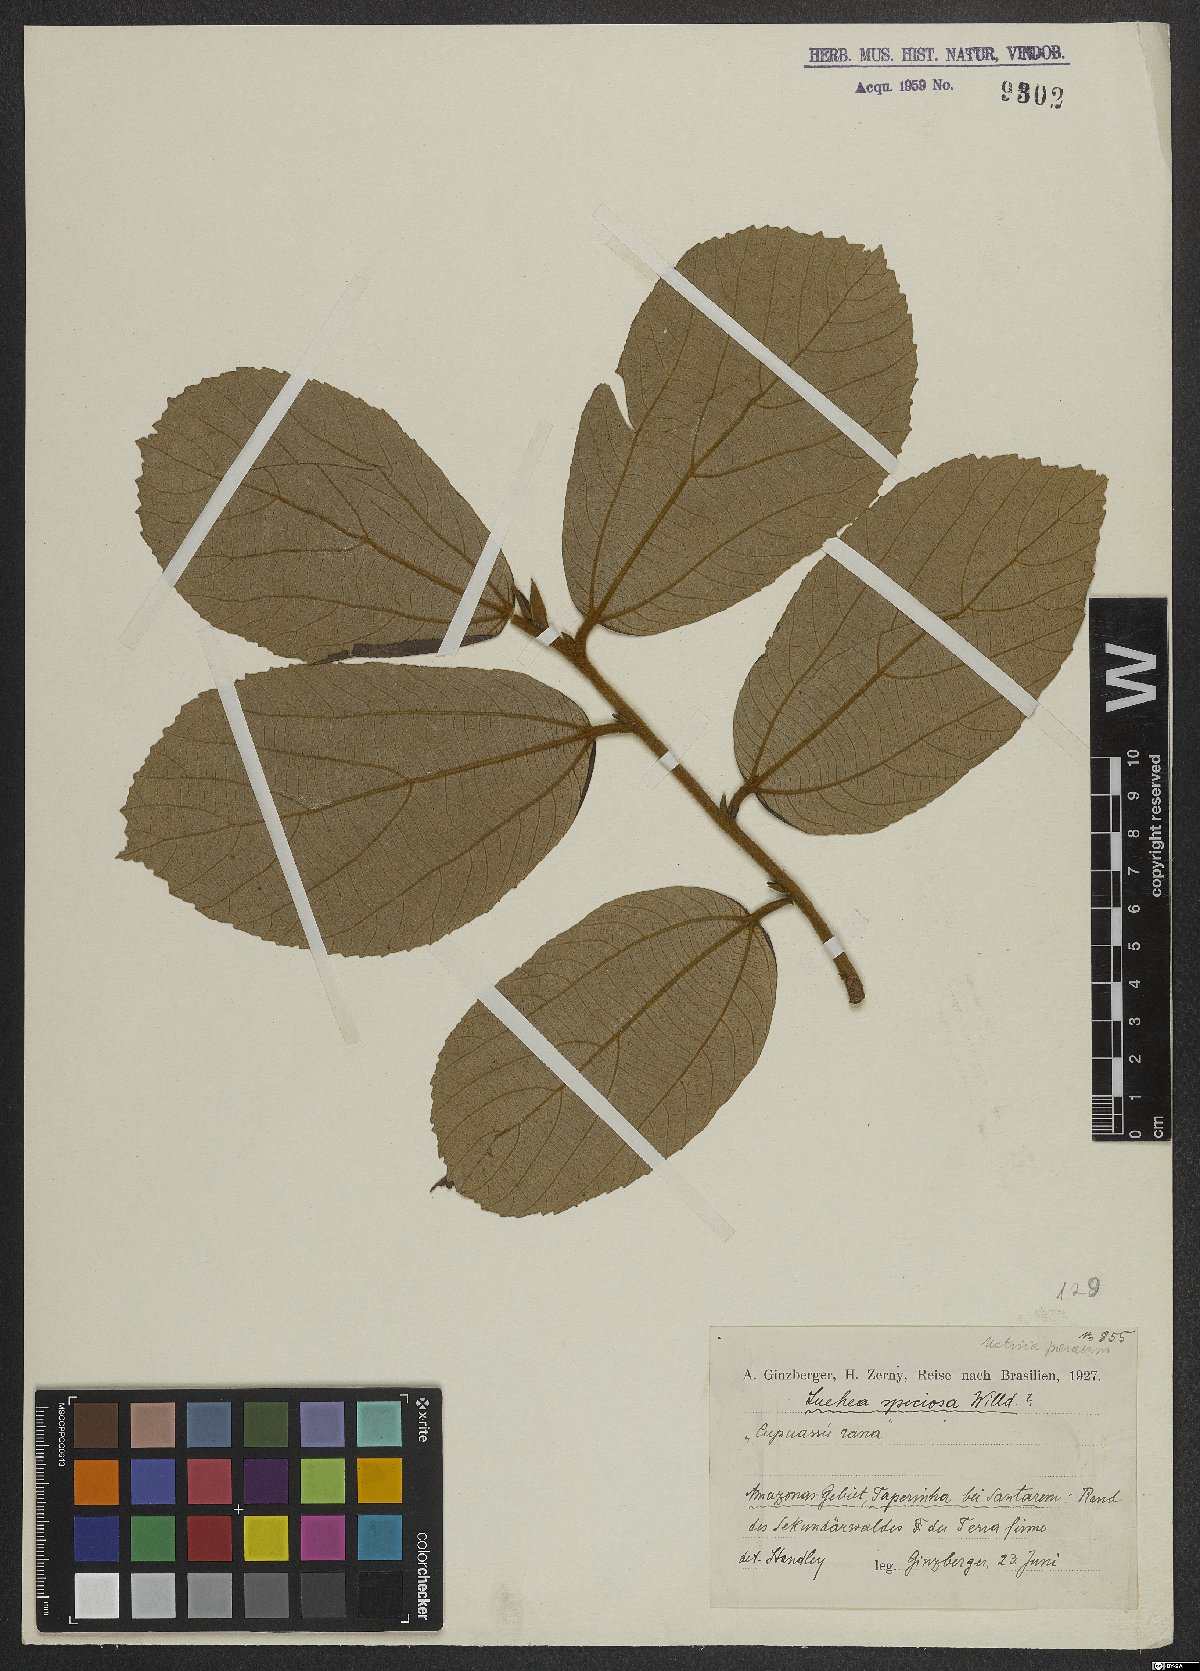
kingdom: Plantae
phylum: Tracheophyta
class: Magnoliopsida
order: Malvales
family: Malvaceae
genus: Luehea
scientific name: Luehea speciosa
